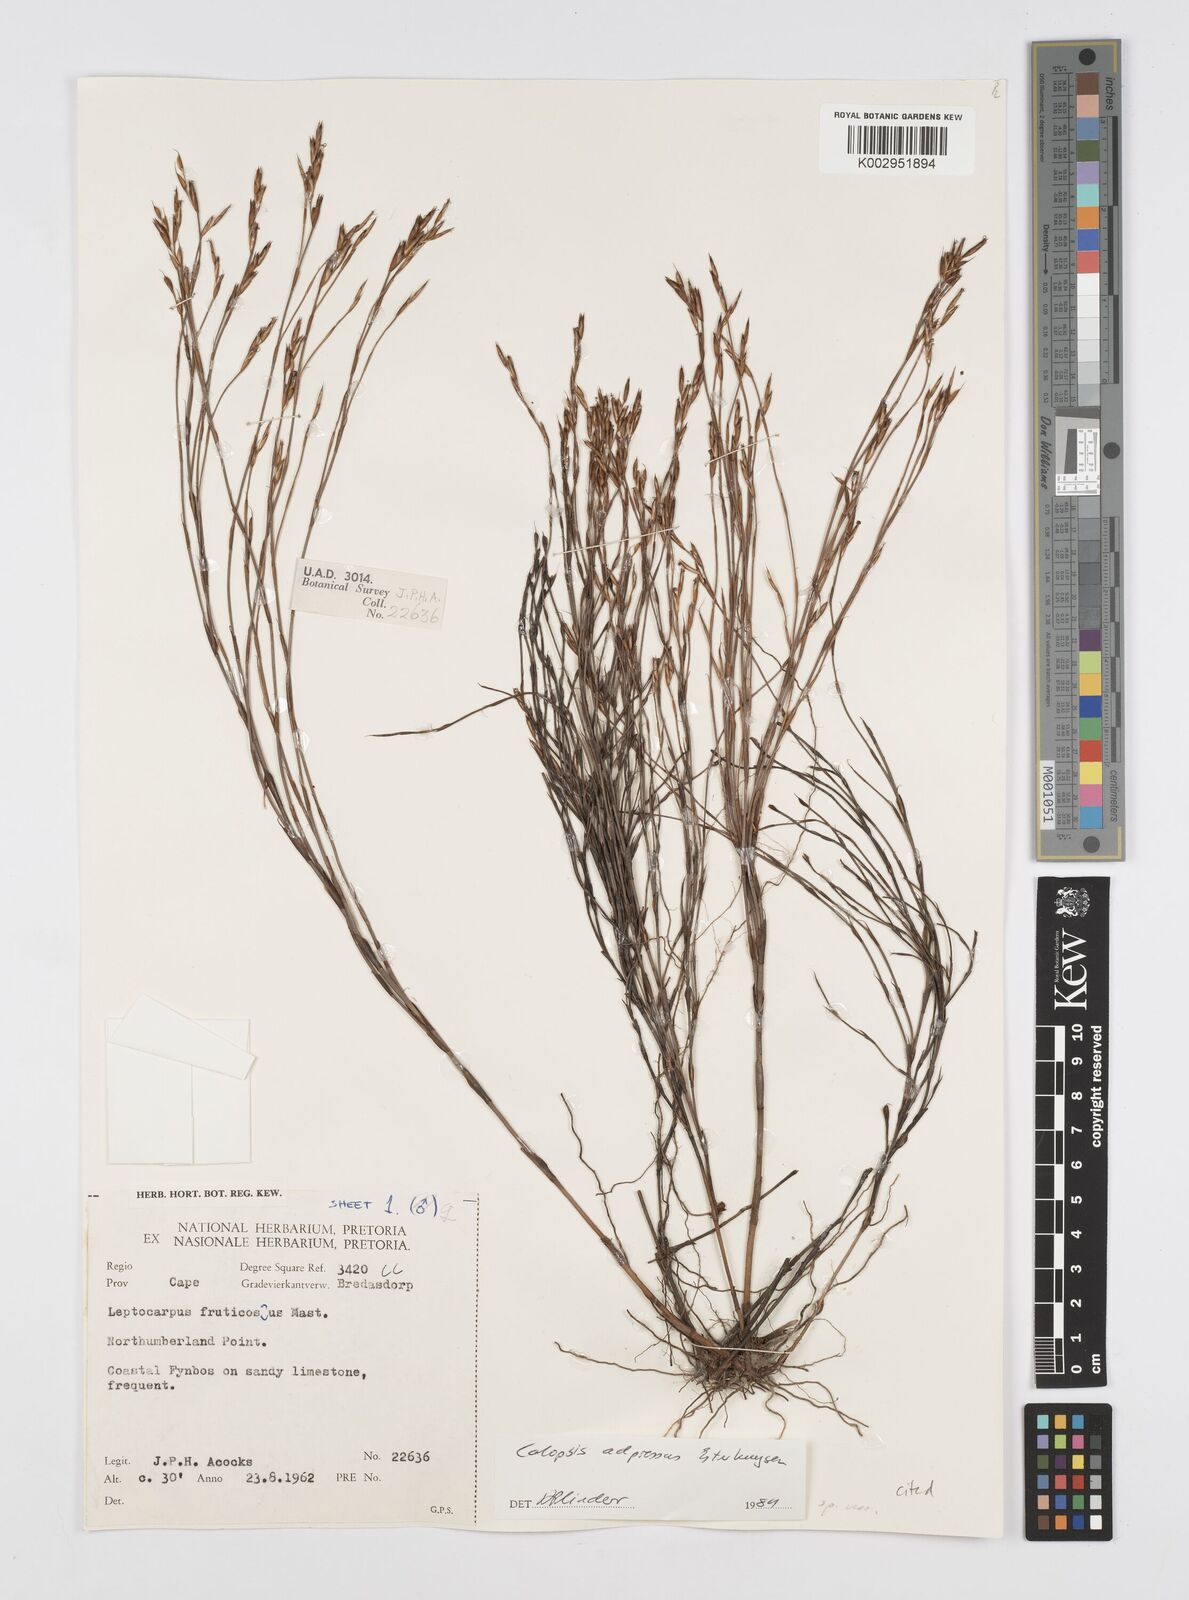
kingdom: Plantae
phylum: Tracheophyta
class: Liliopsida
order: Poales
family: Restionaceae
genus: Restio
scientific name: Restio adpressus
